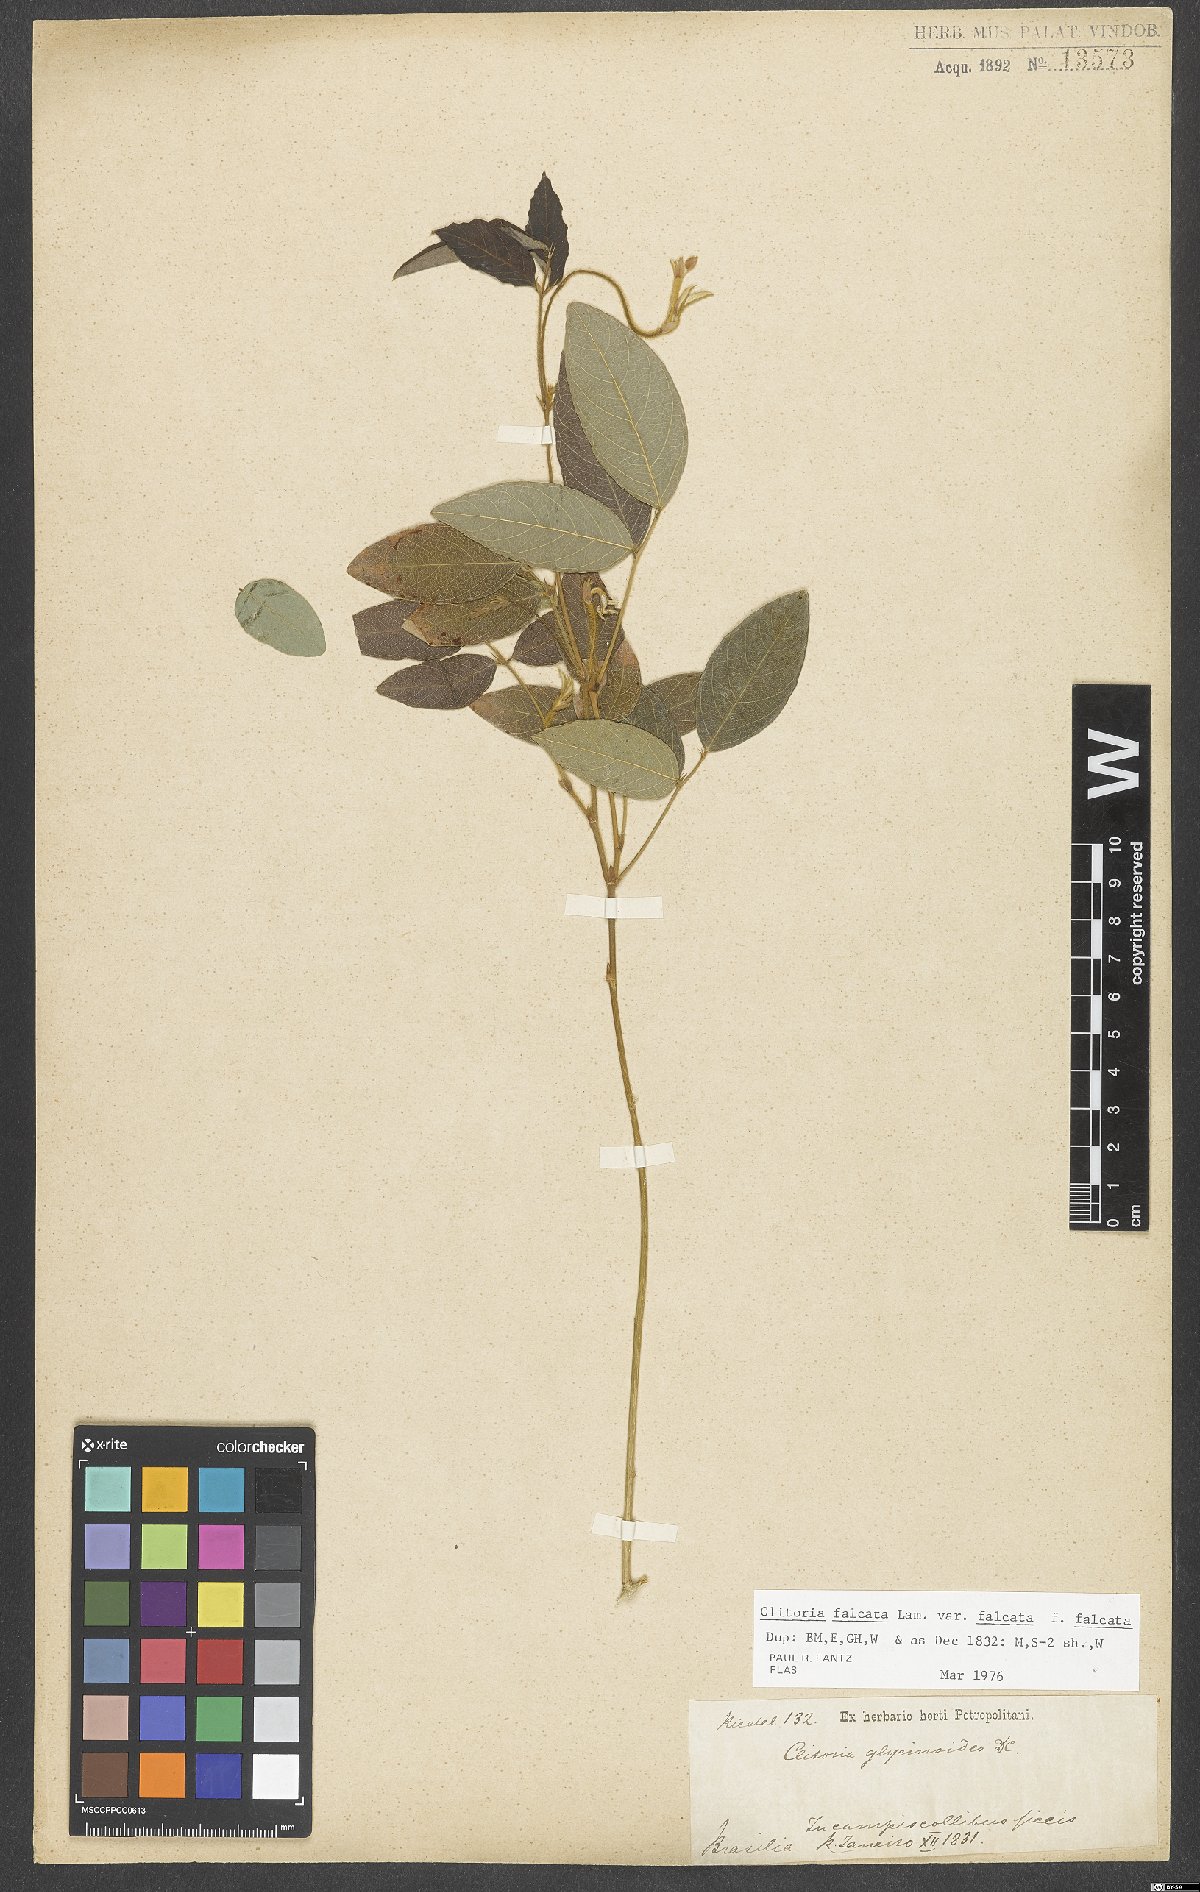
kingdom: Plantae
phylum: Tracheophyta
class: Magnoliopsida
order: Fabales
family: Fabaceae
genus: Clitoria
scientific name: Clitoria falcata
